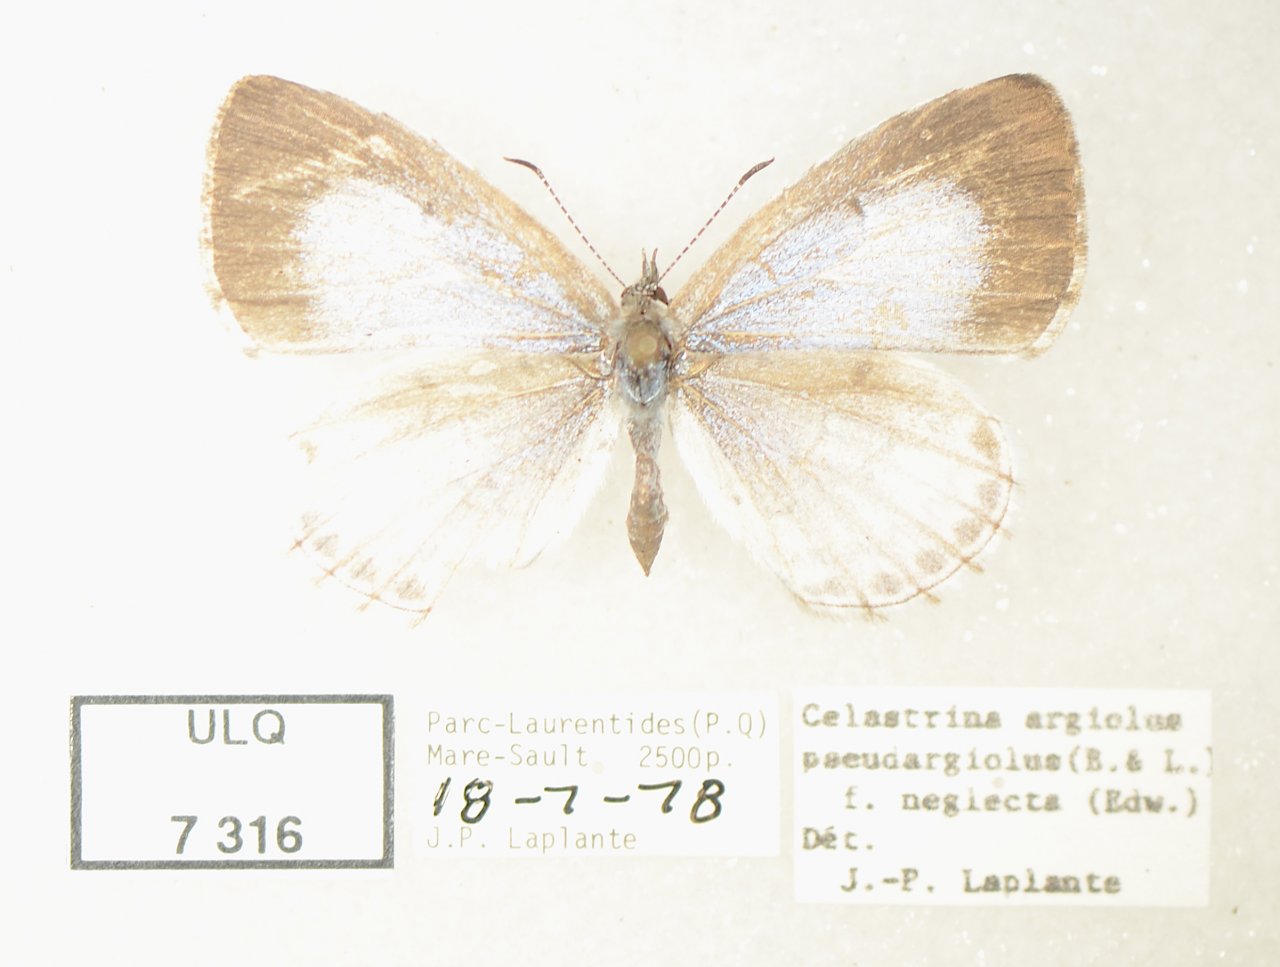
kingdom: Animalia
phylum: Arthropoda
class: Insecta
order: Lepidoptera
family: Lycaenidae
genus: Celastrina
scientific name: Celastrina lucia
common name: Northern Spring Azure
